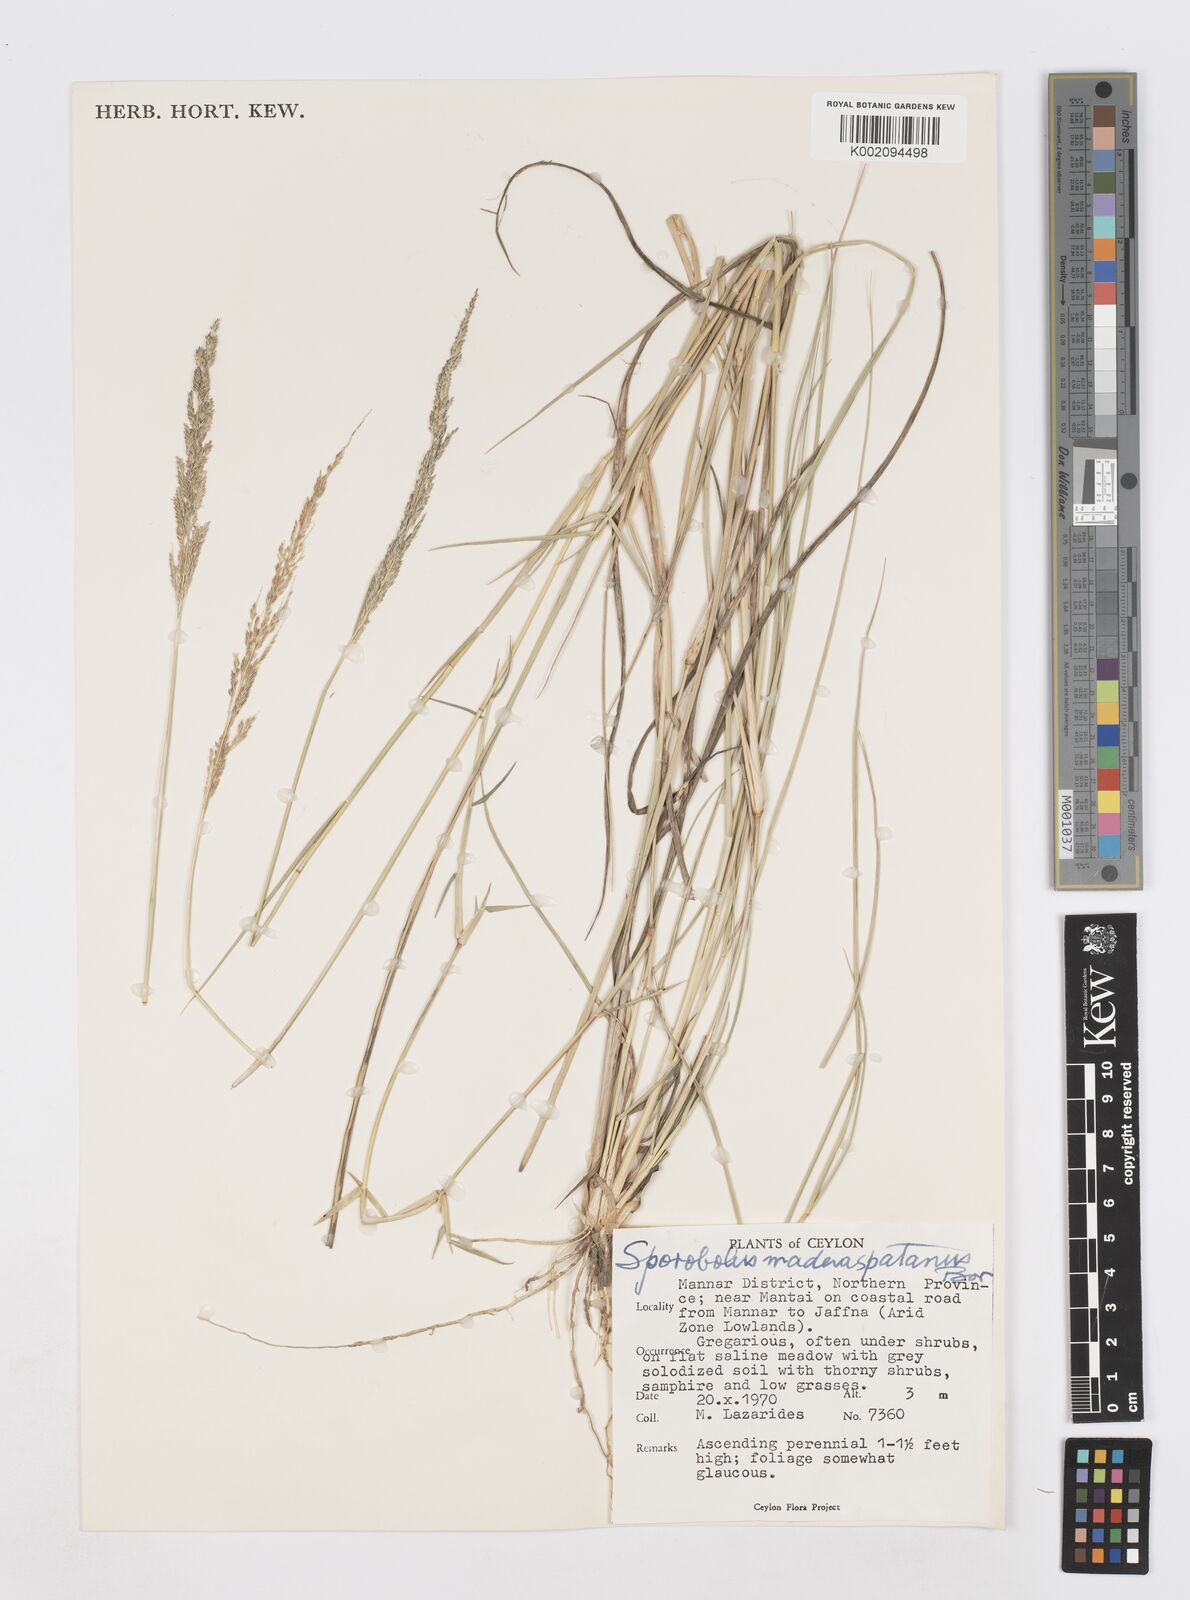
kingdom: Plantae
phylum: Tracheophyta
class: Liliopsida
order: Poales
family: Poaceae
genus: Sporobolus
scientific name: Sporobolus maderaspatanus
